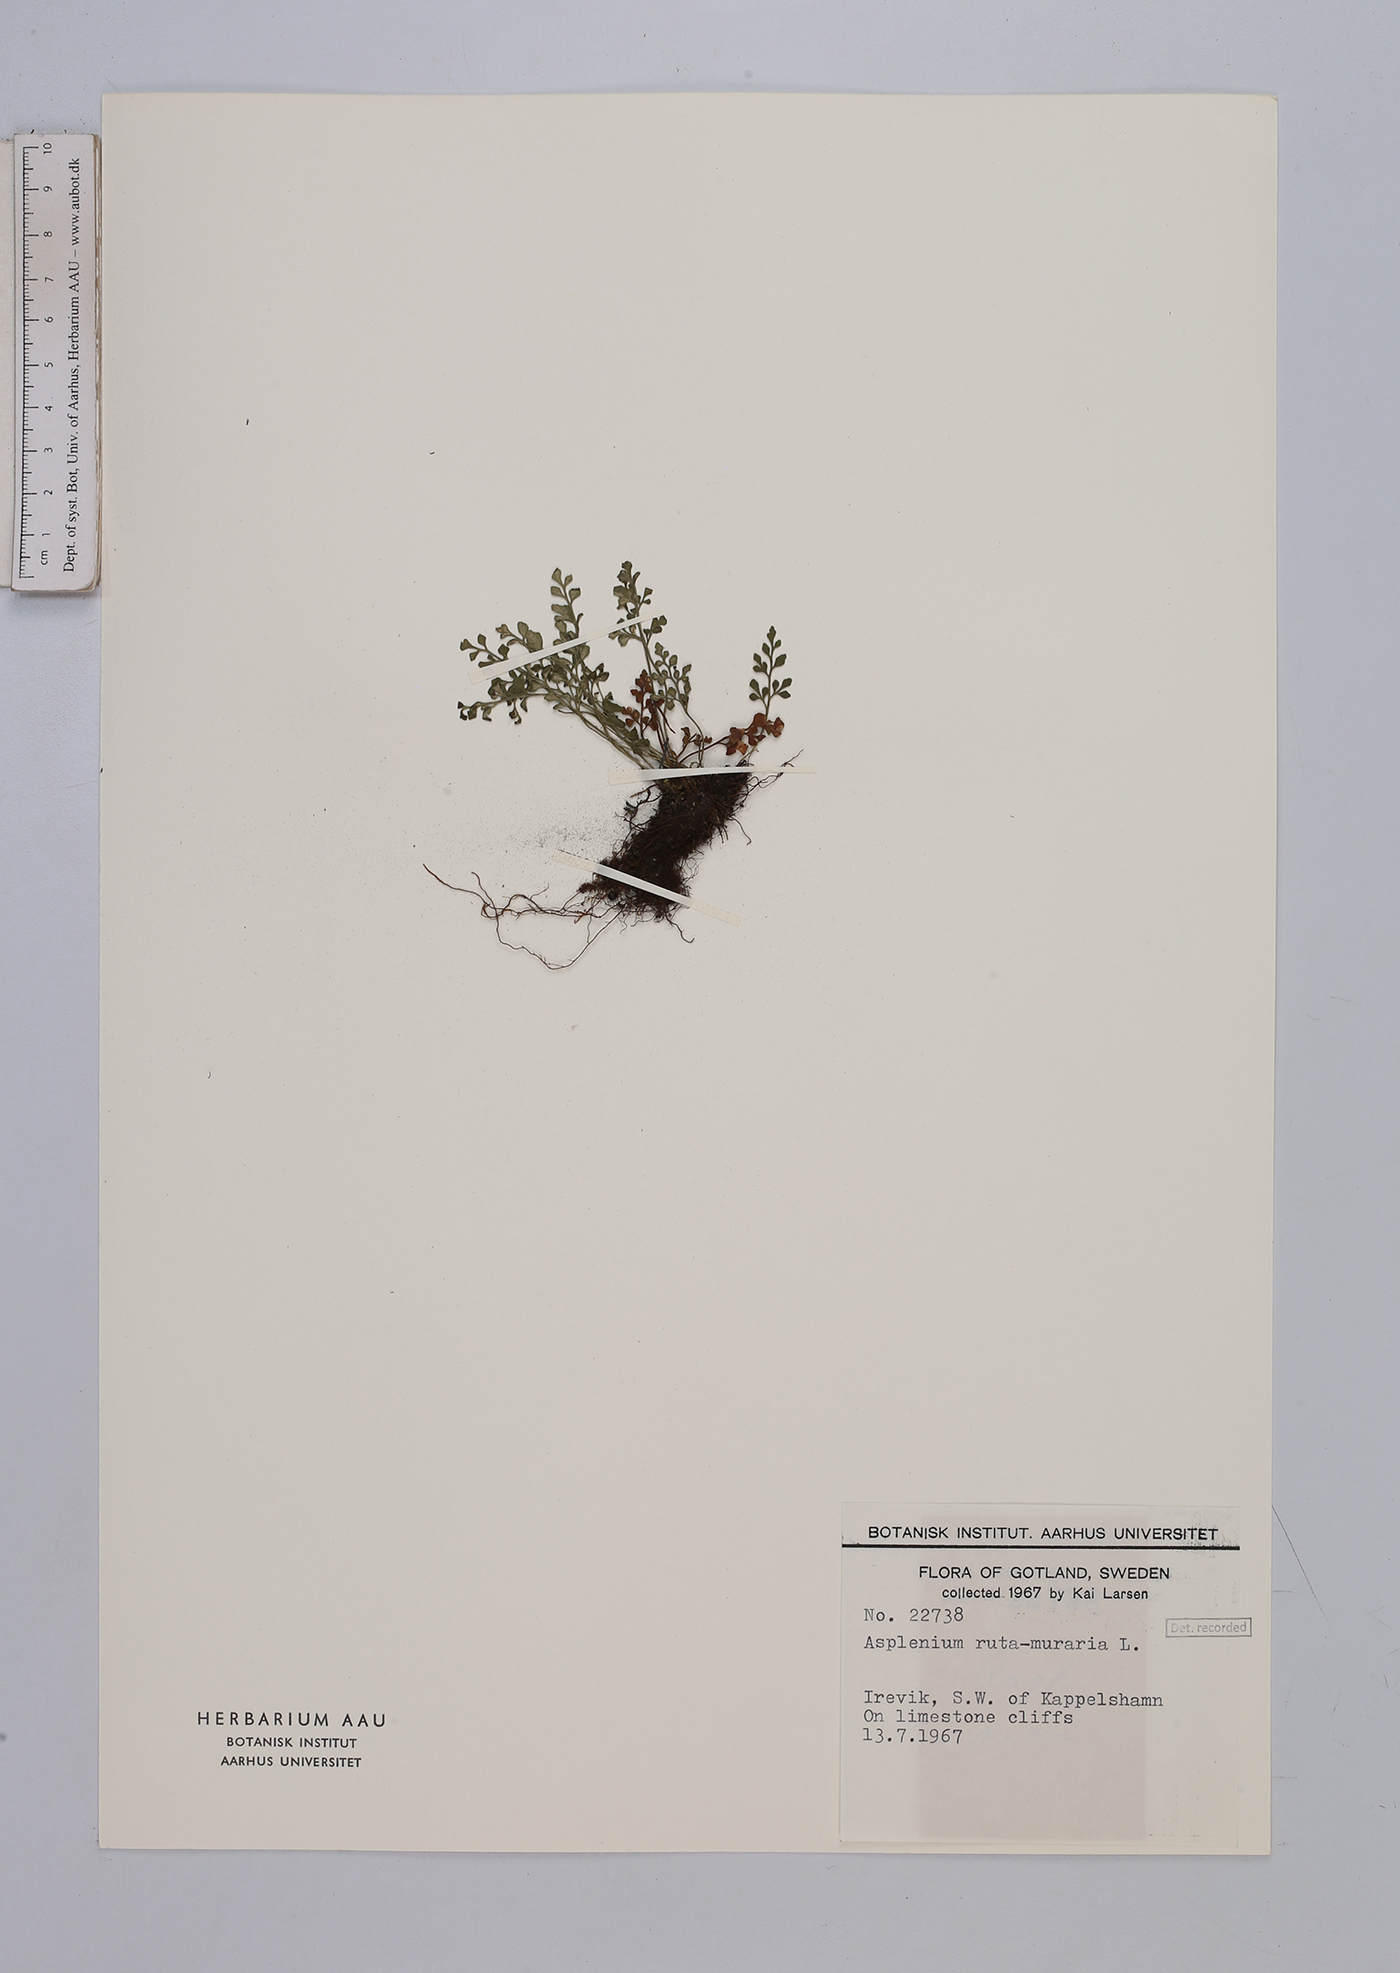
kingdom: Plantae
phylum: Tracheophyta
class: Polypodiopsida
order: Polypodiales
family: Aspleniaceae
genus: Asplenium
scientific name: Asplenium ruta-muraria
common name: Wall-rue
